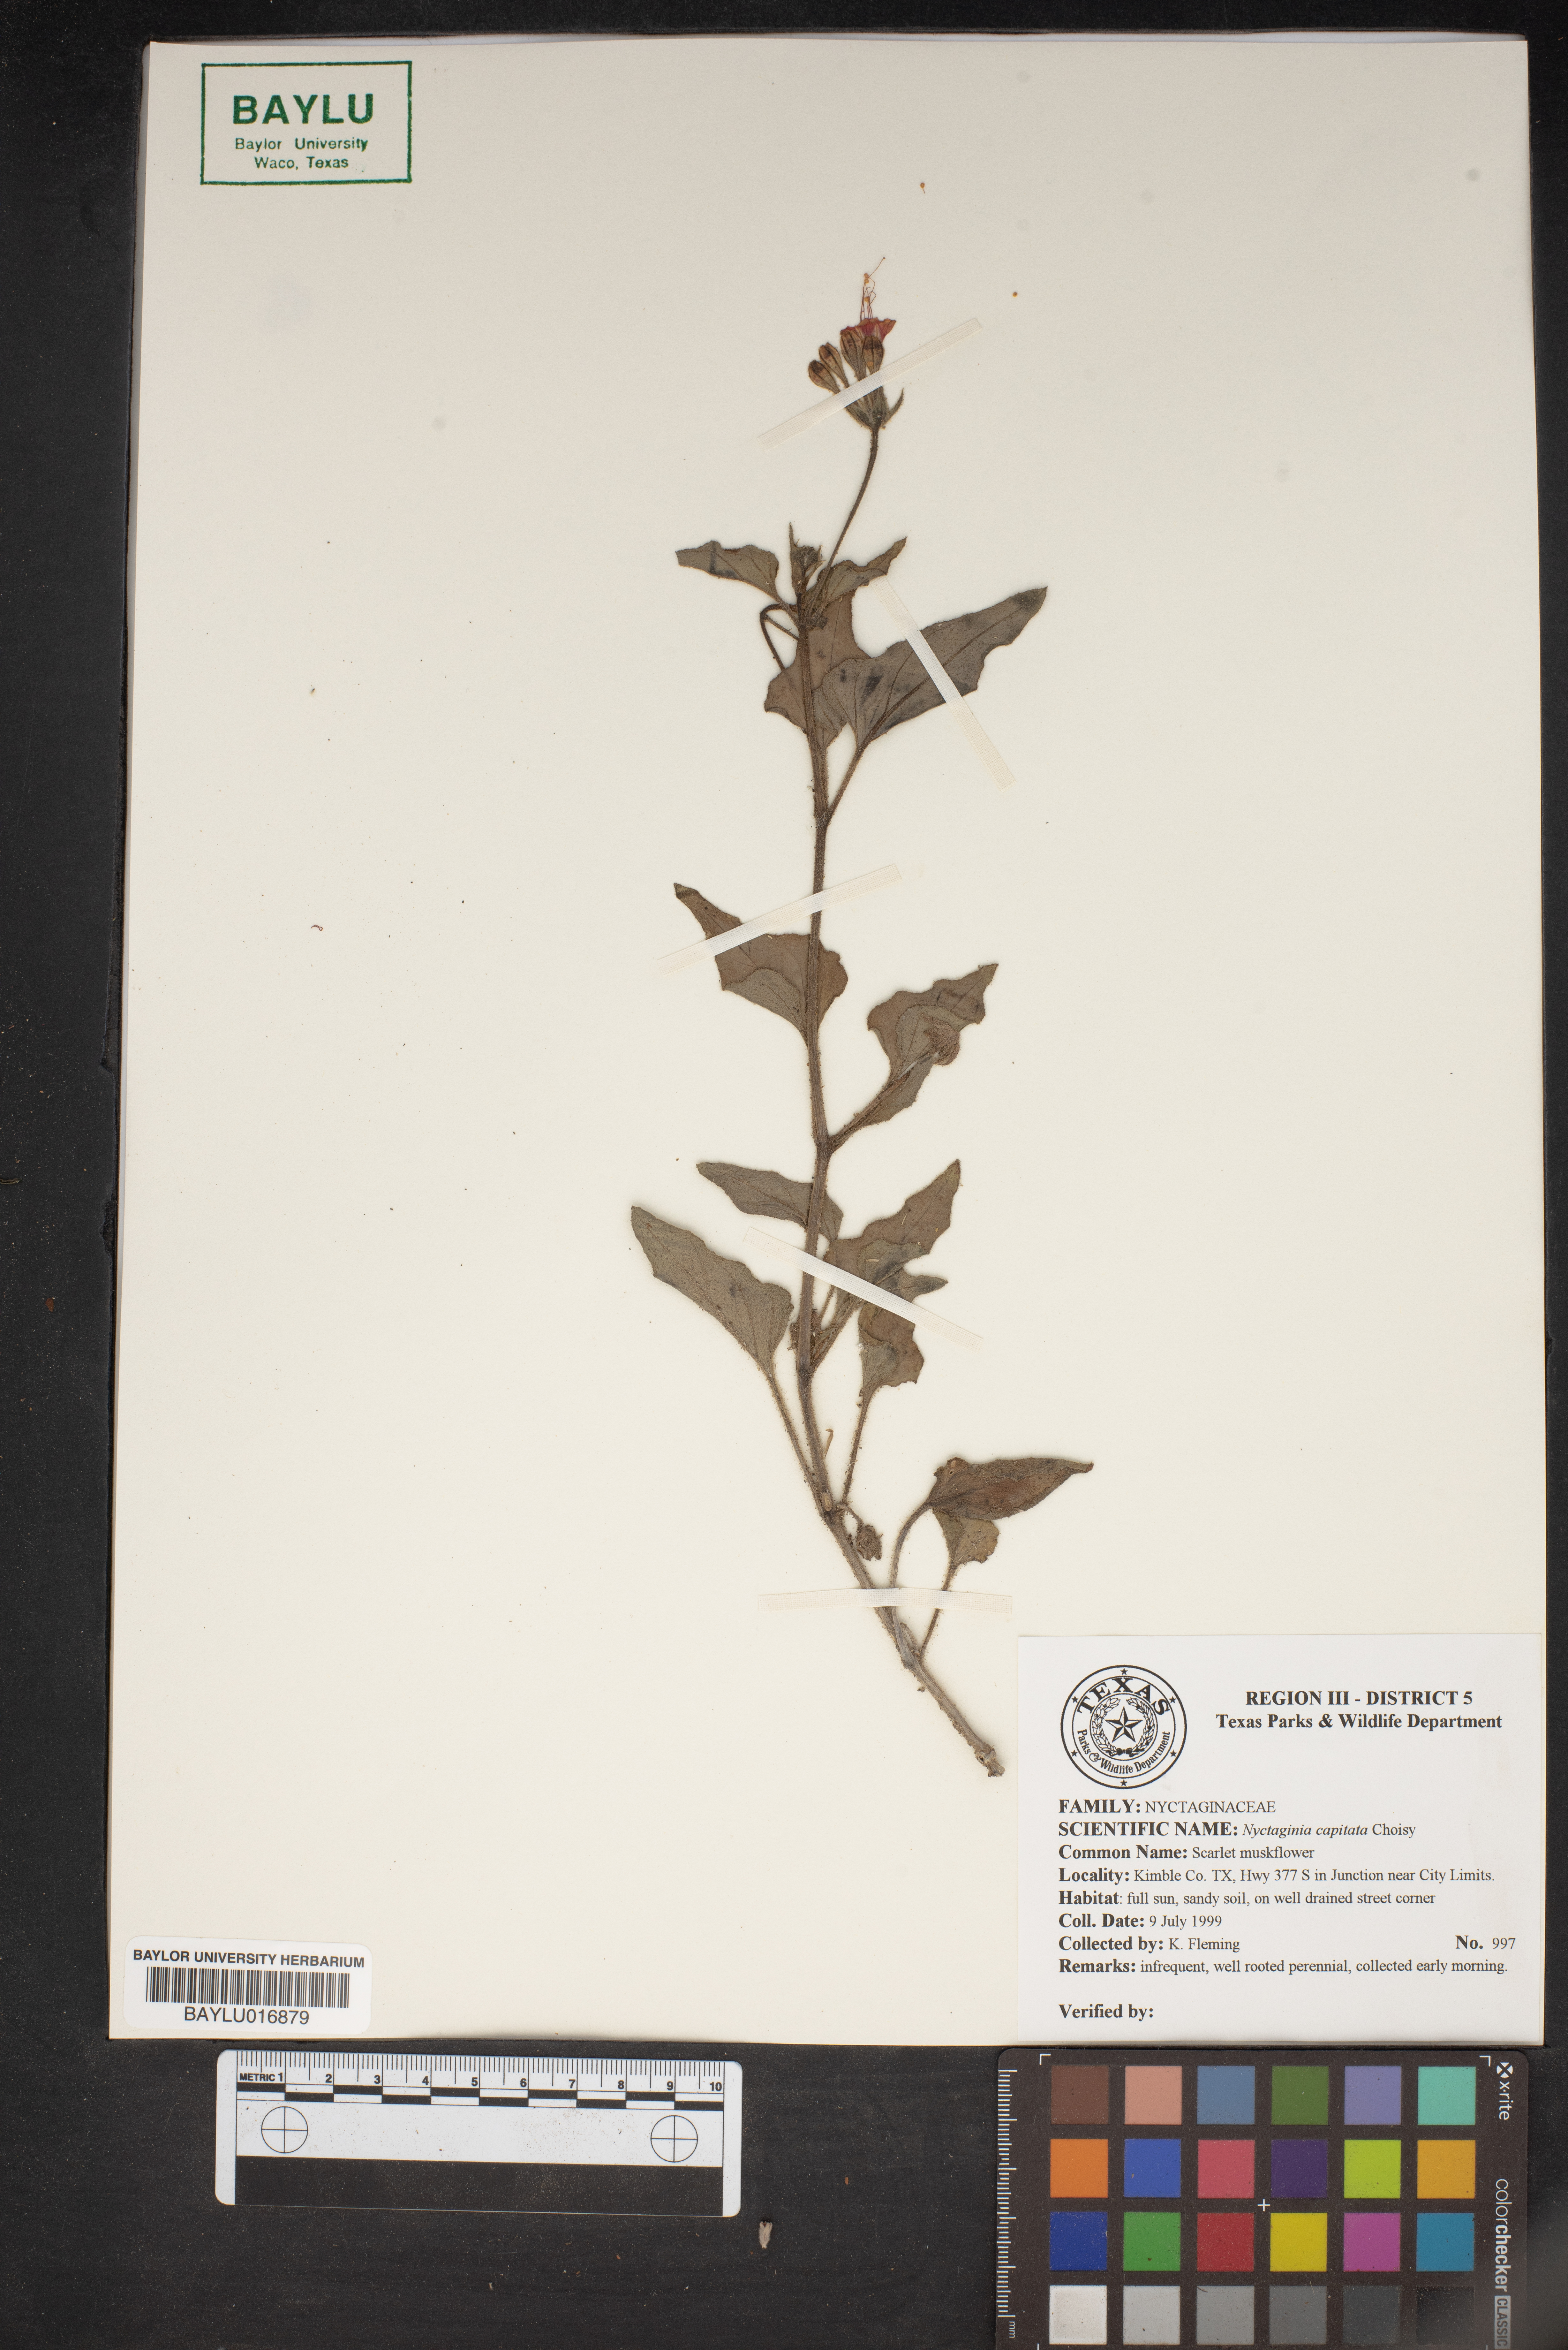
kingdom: Plantae
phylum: Tracheophyta
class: Magnoliopsida
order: Caryophyllales
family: Nyctaginaceae
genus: Nyctaginia
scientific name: Nyctaginia capitata
